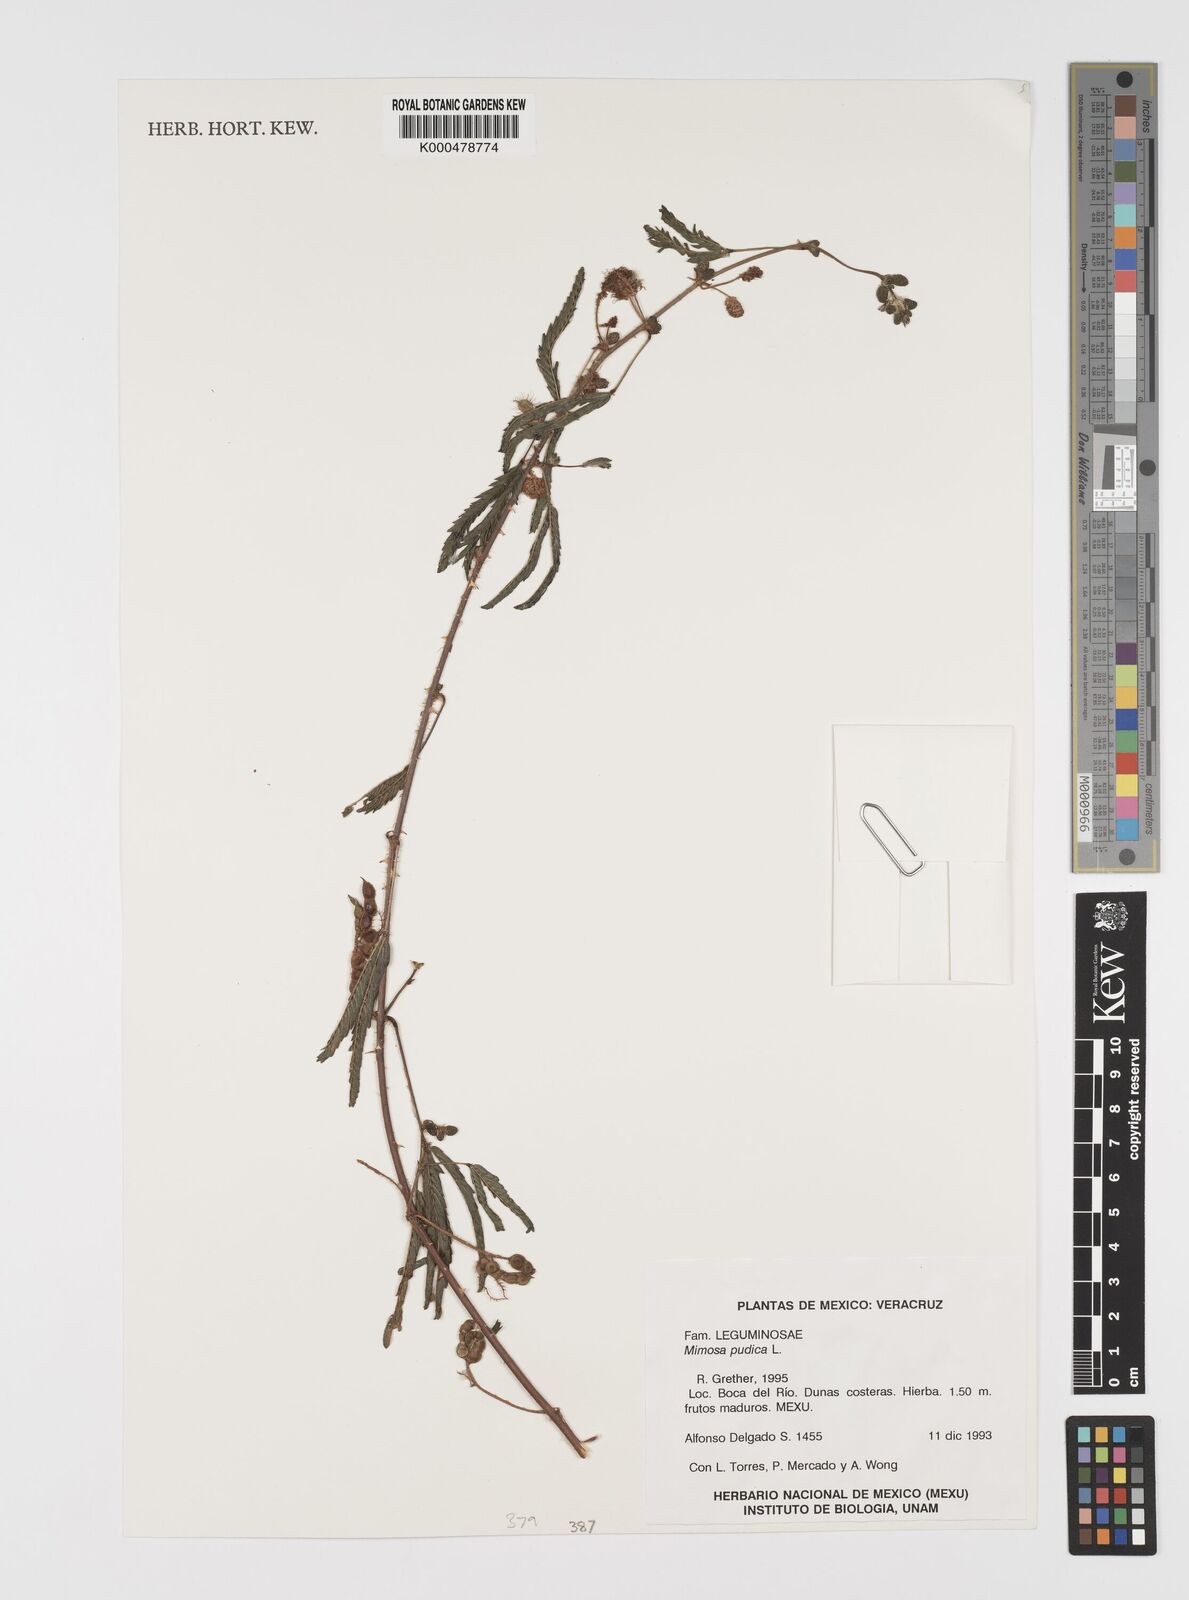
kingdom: Plantae
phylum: Tracheophyta
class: Magnoliopsida
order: Fabales
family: Fabaceae
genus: Mimosa
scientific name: Mimosa pudica
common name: Sensitive plant
